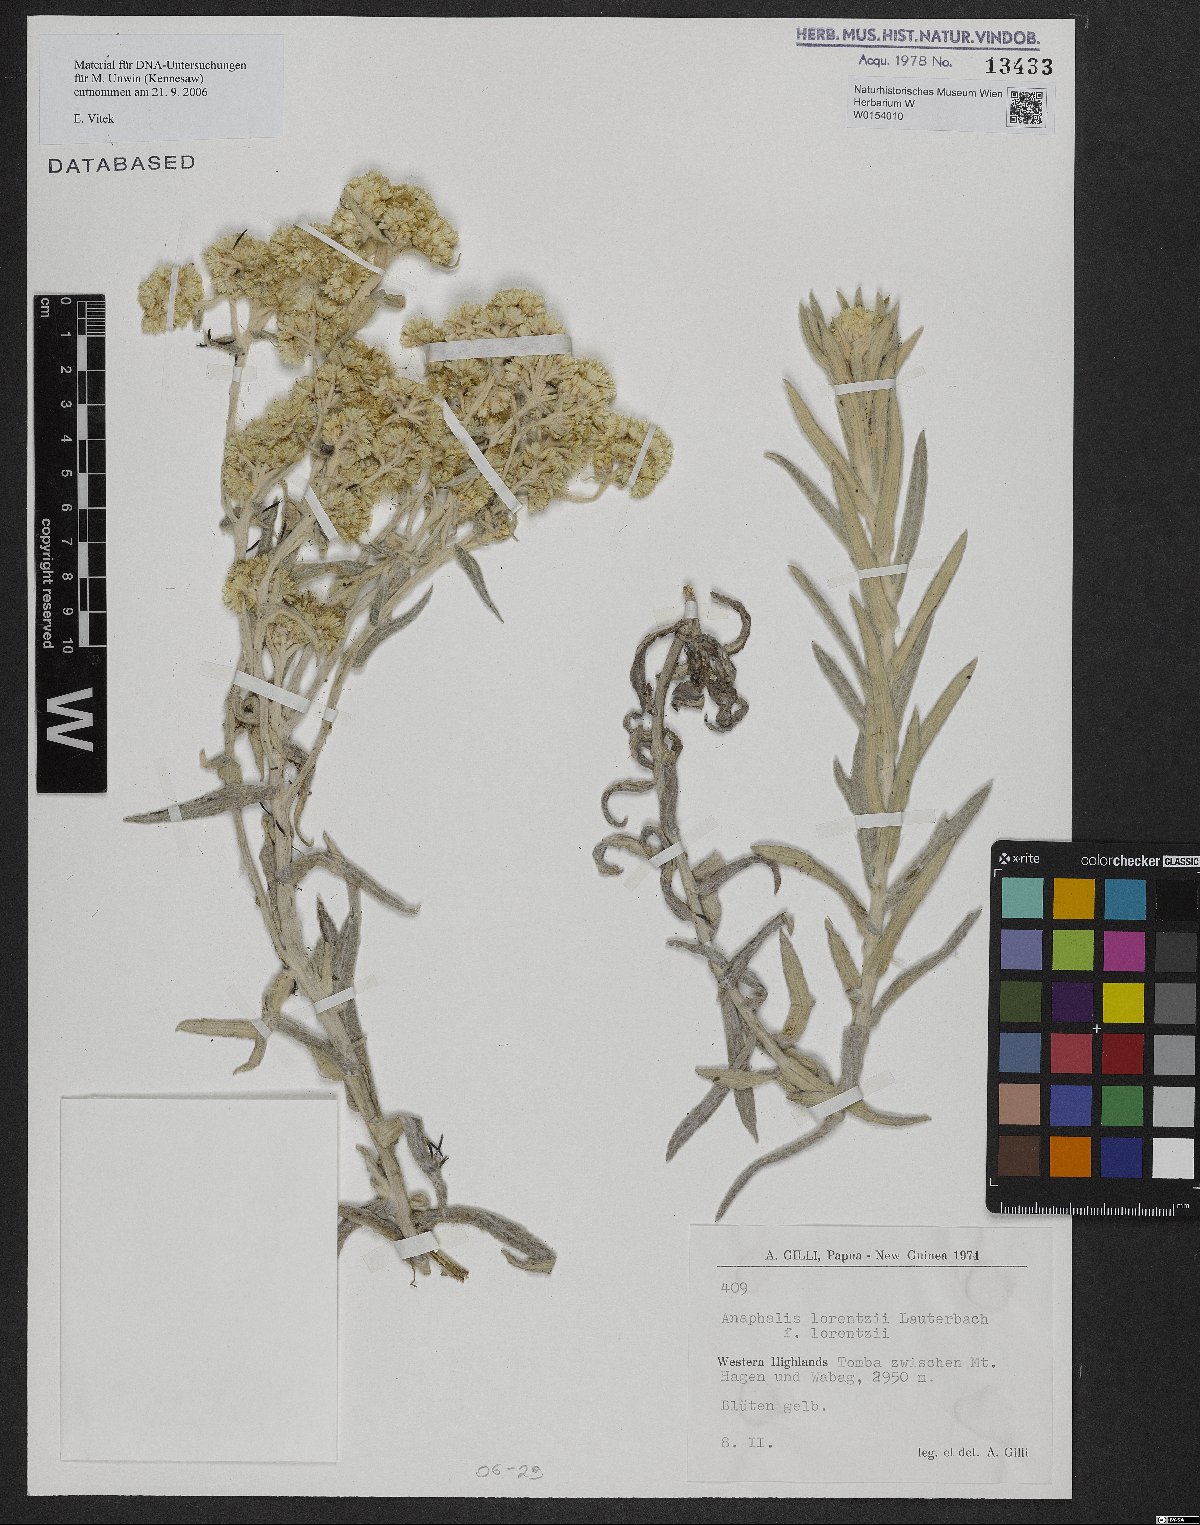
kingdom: Plantae
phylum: Tracheophyta
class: Magnoliopsida
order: Asterales
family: Asteraceae
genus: Anaphalis
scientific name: Anaphalis lorentzii
